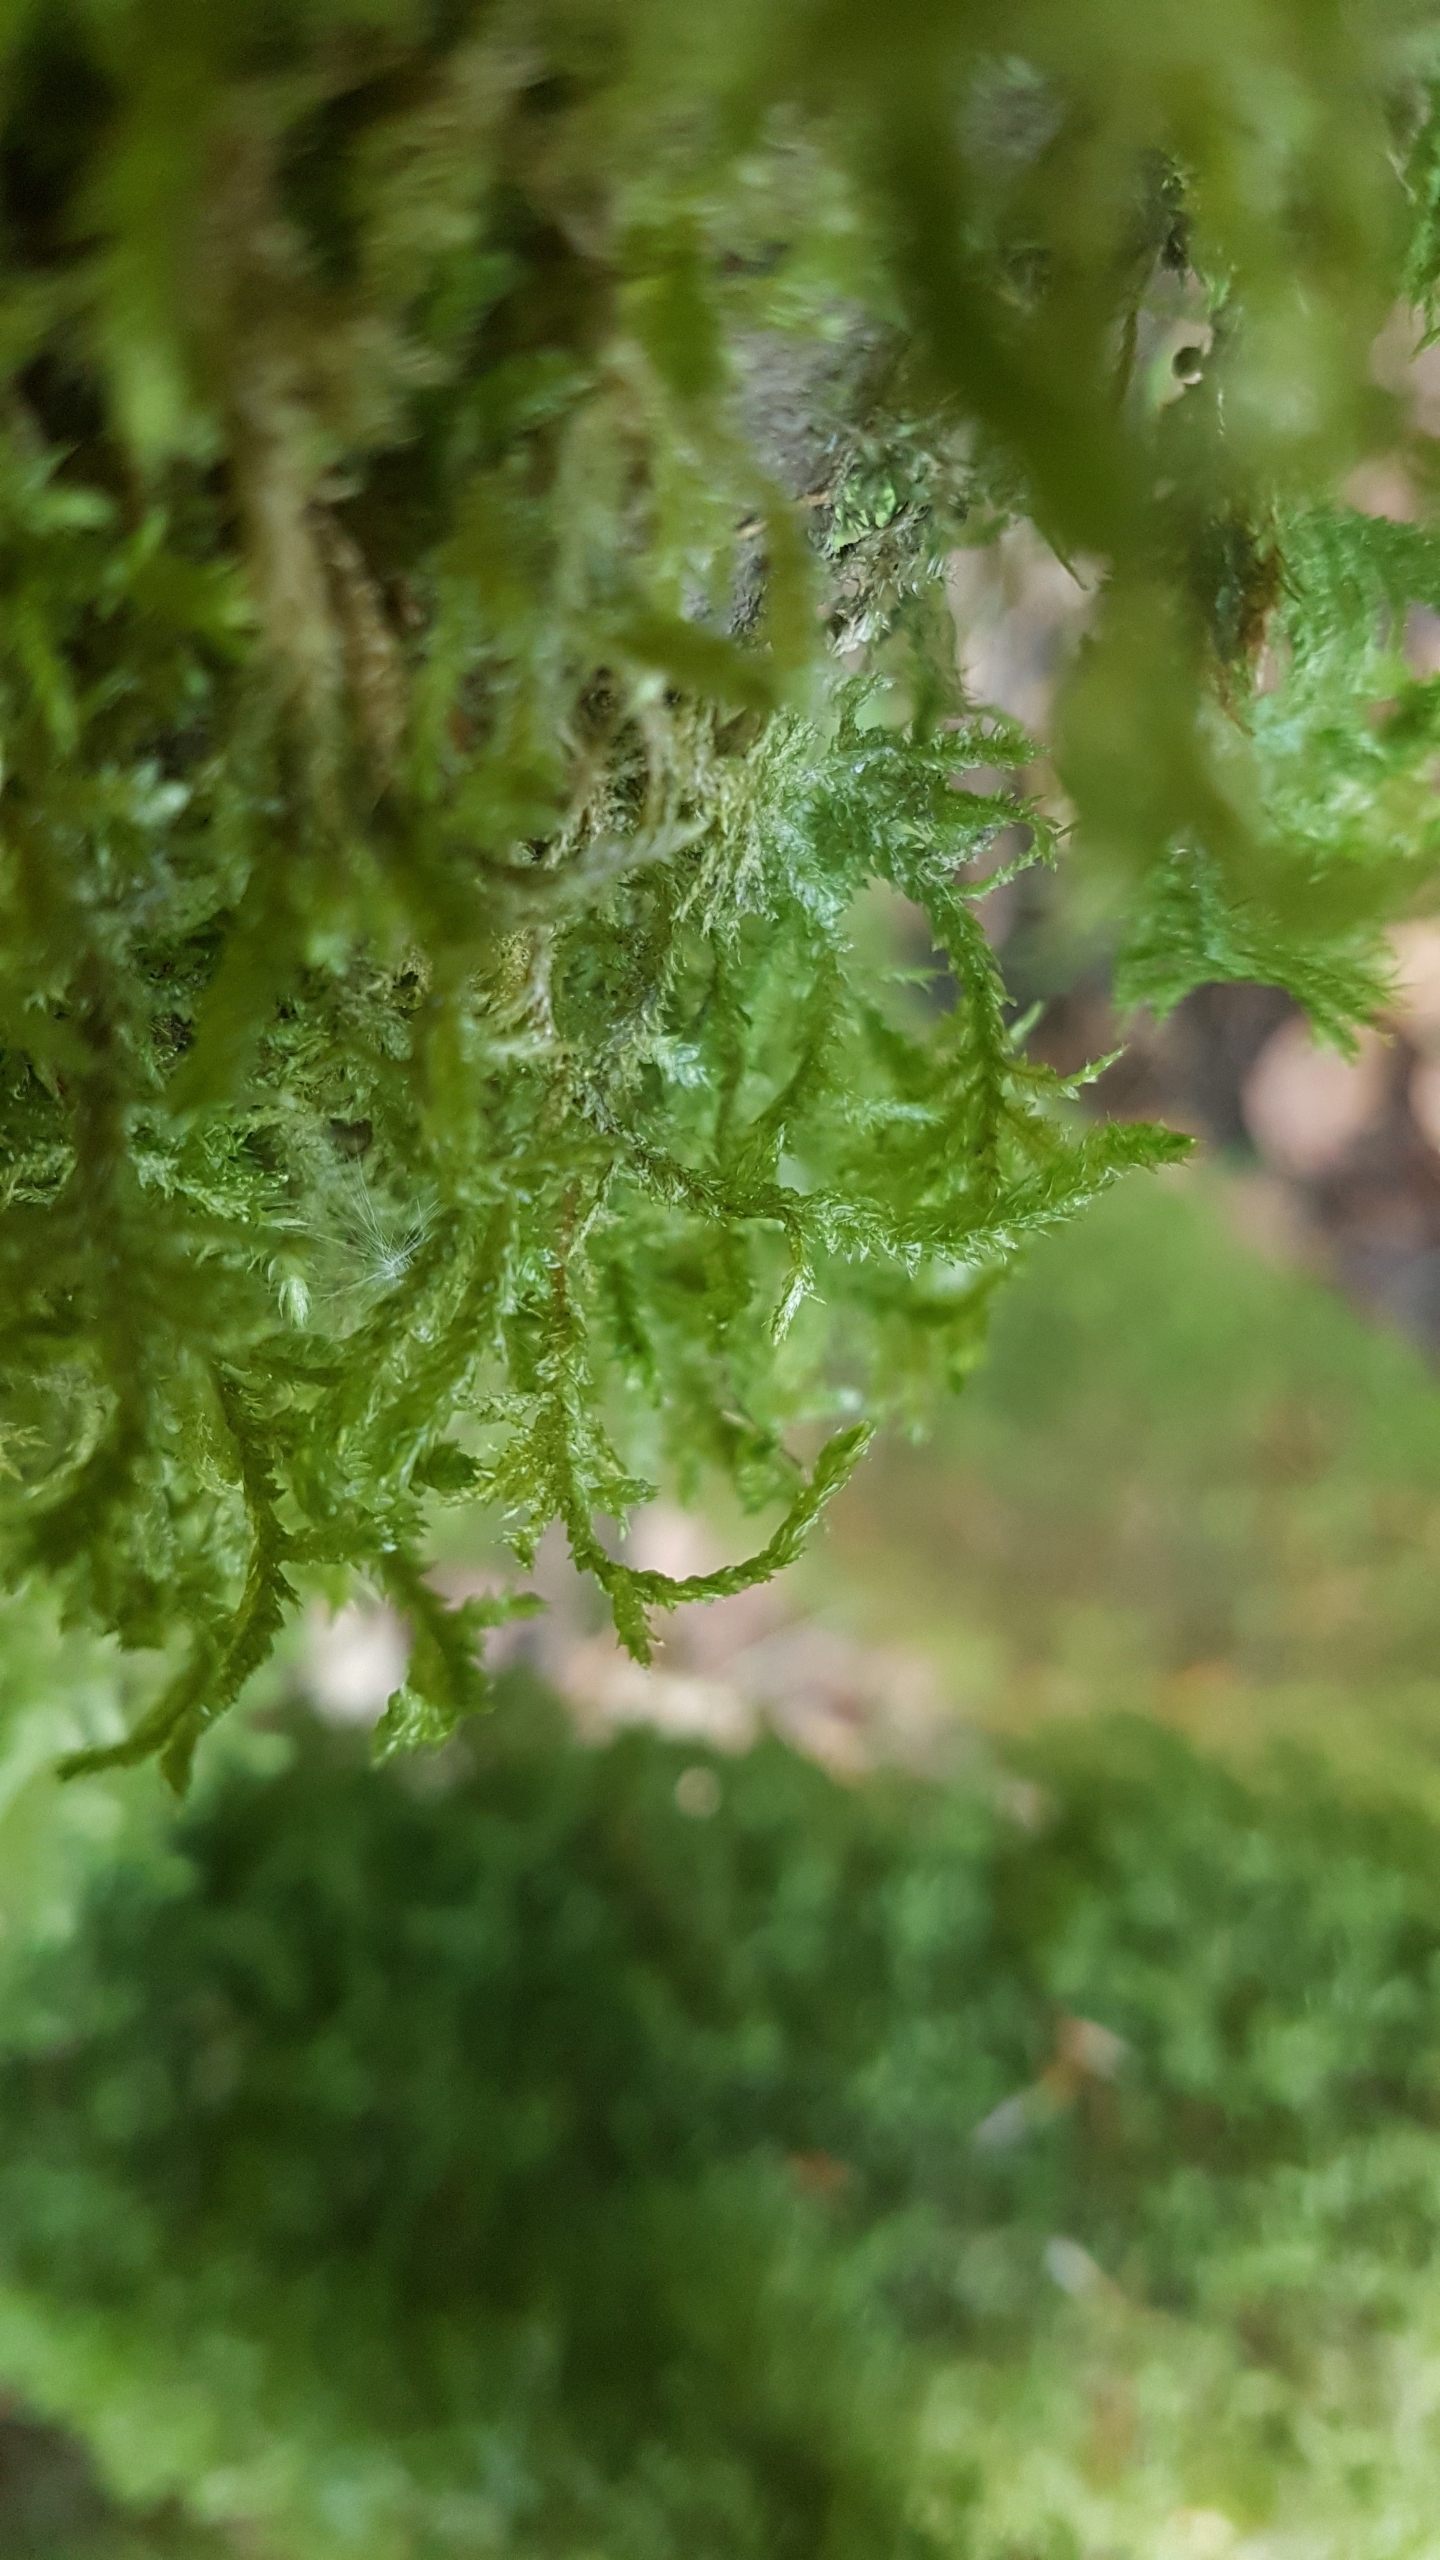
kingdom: Plantae
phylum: Bryophyta
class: Bryopsida
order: Hypnales
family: Neckeraceae
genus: Neckera
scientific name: Neckera pumila
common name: Lav fladmos
